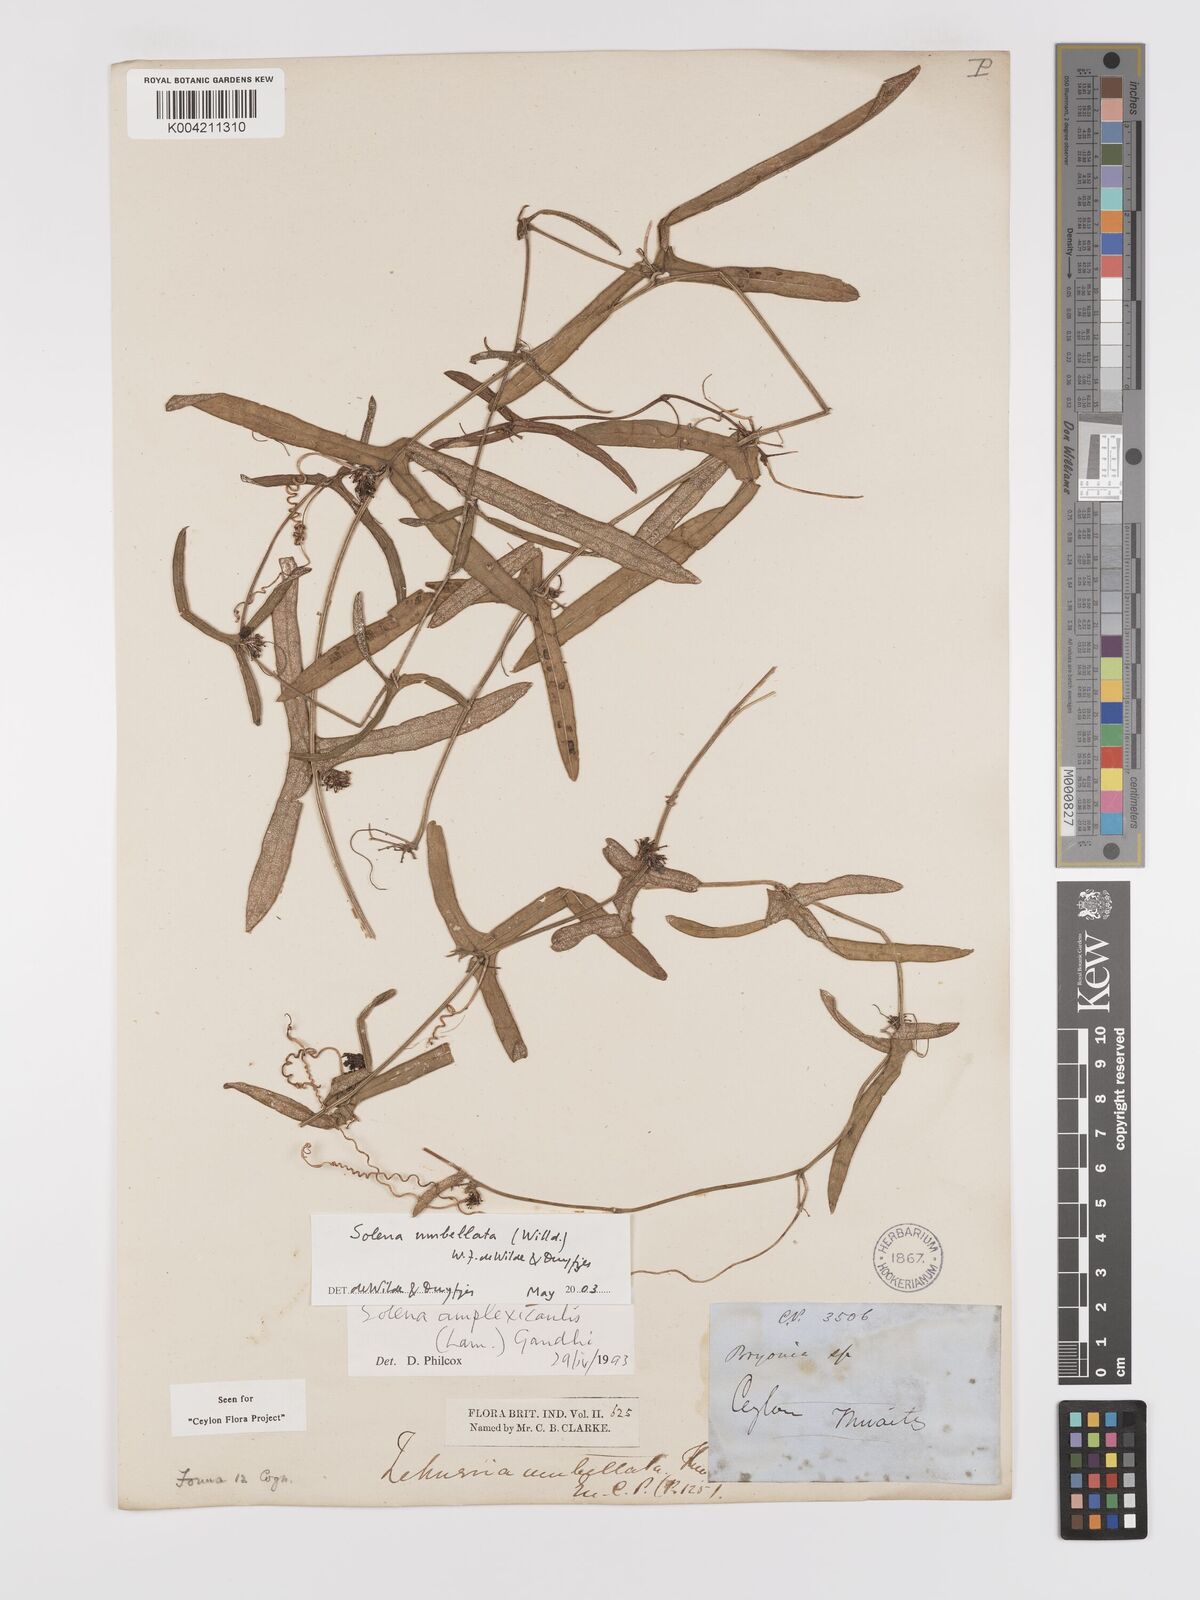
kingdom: Plantae
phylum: Tracheophyta
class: Magnoliopsida
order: Cucurbitales
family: Cucurbitaceae
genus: Solena
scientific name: Solena umbellata
